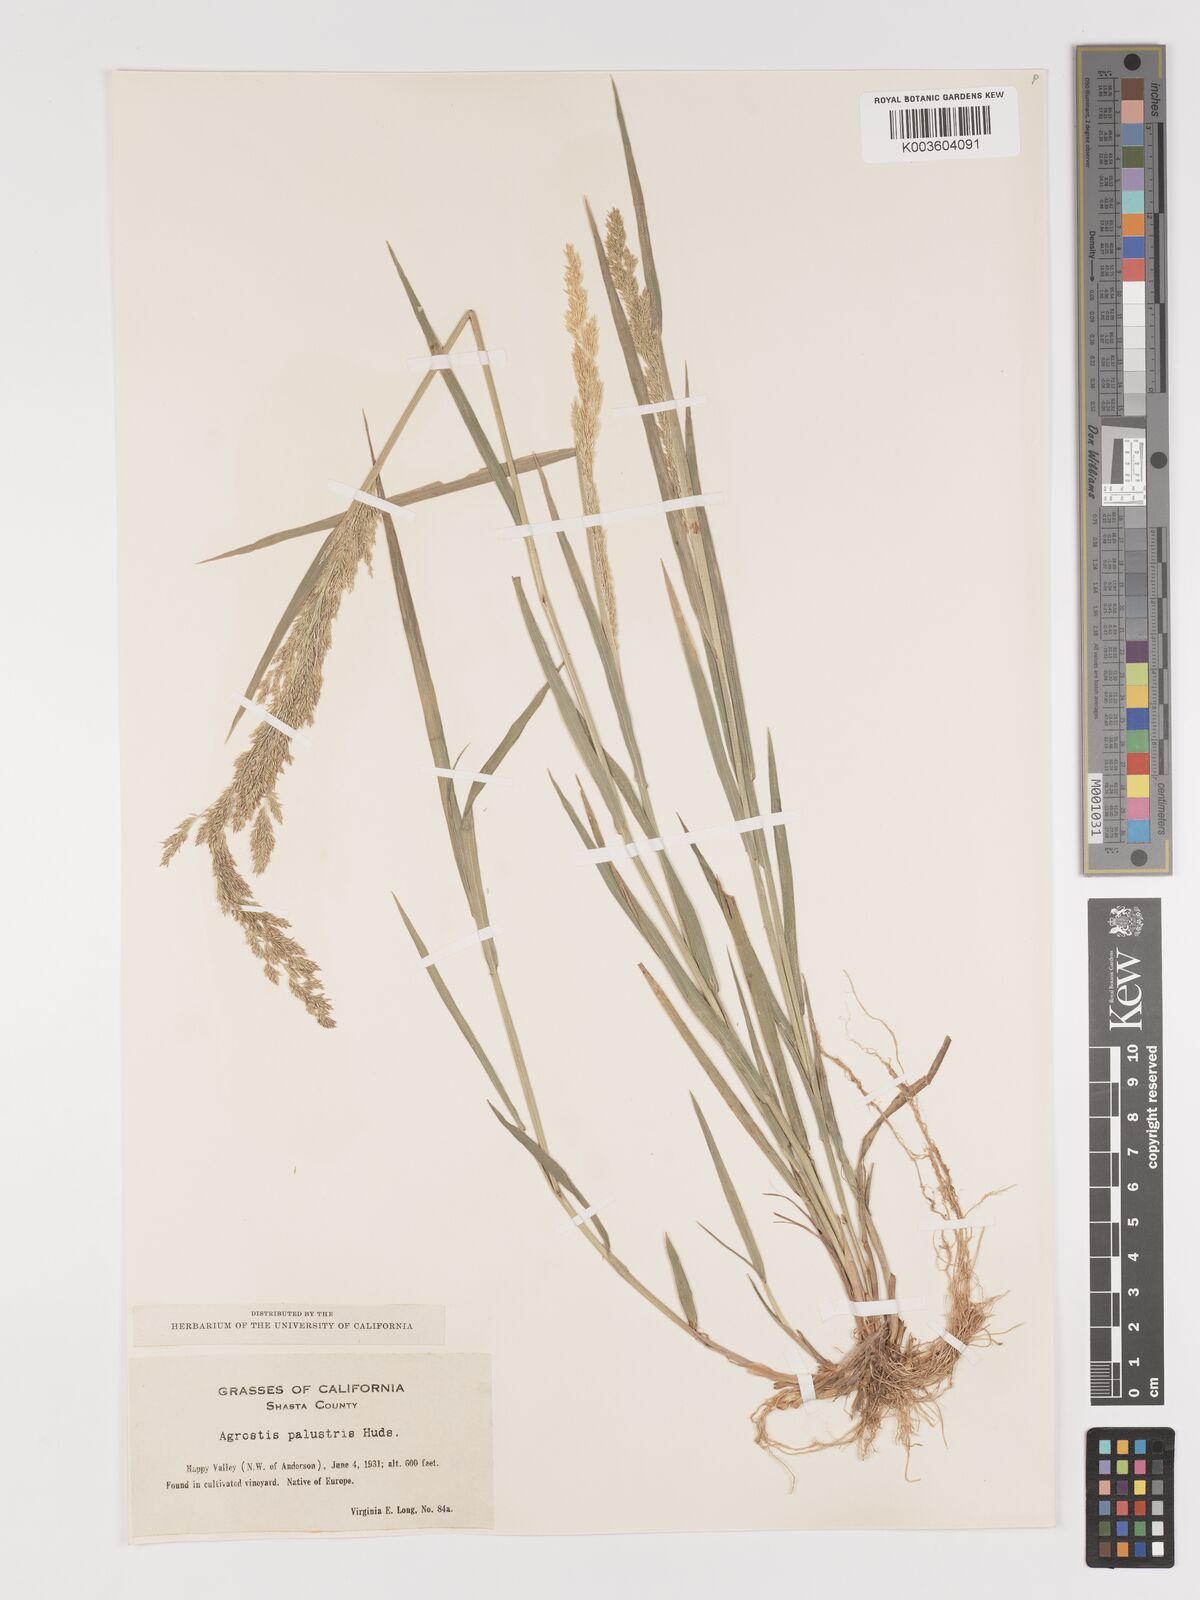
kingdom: Plantae
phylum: Tracheophyta
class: Liliopsida
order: Poales
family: Poaceae
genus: Agrostis
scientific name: Agrostis gigantea
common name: Black bent
